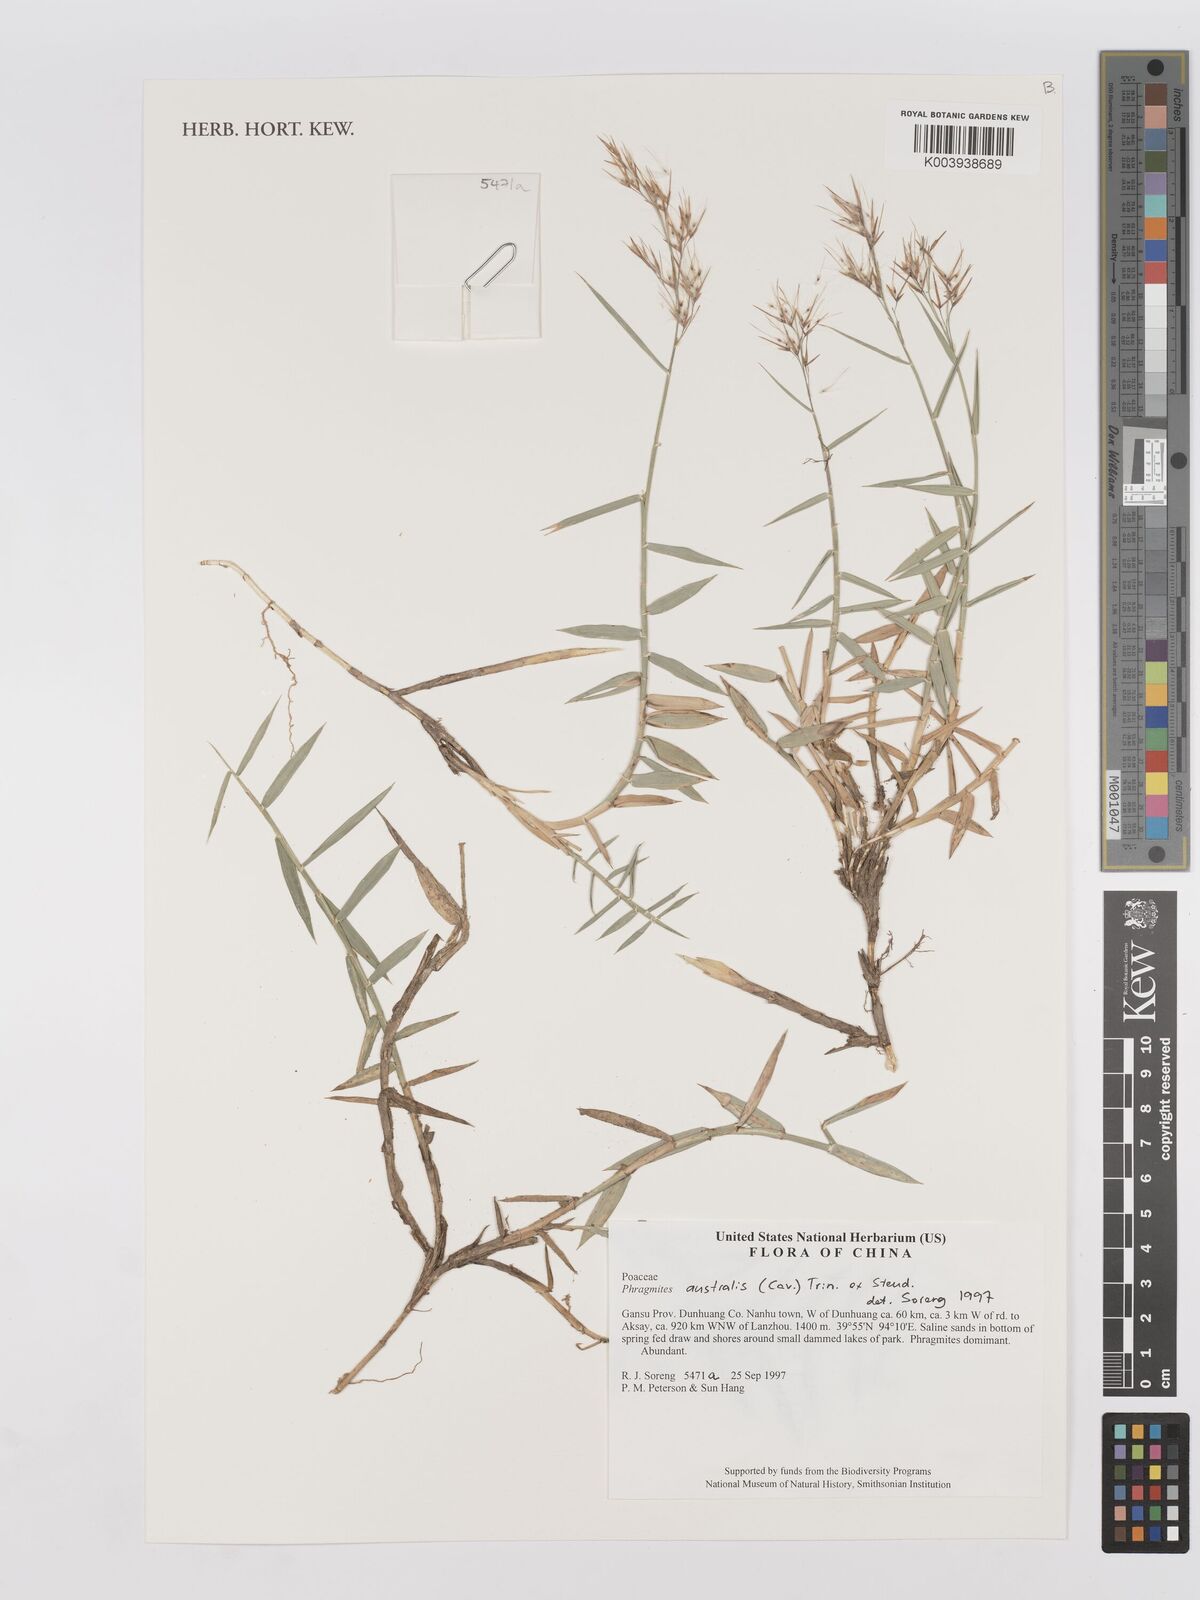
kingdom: Plantae
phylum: Tracheophyta
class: Liliopsida
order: Poales
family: Poaceae
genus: Phragmites
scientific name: Phragmites australis
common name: Common reed
